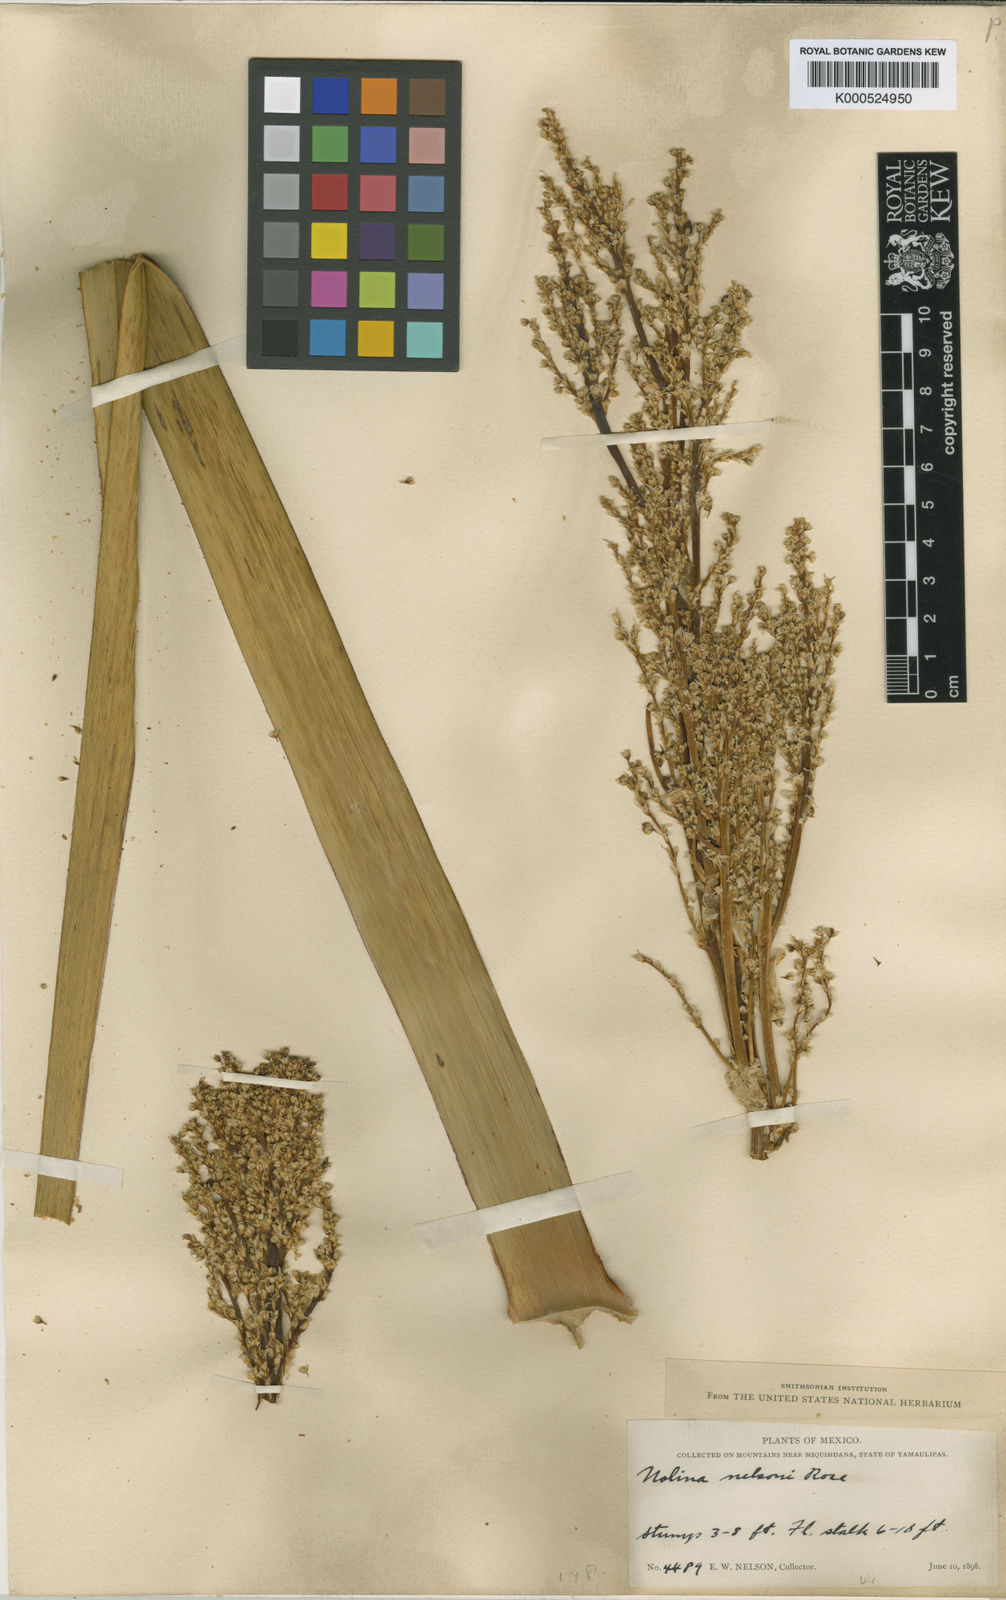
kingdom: Plantae
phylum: Tracheophyta
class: Liliopsida
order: Asparagales
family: Asparagaceae
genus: Nolina
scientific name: Nolina nelsonii
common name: Blue beargrass
